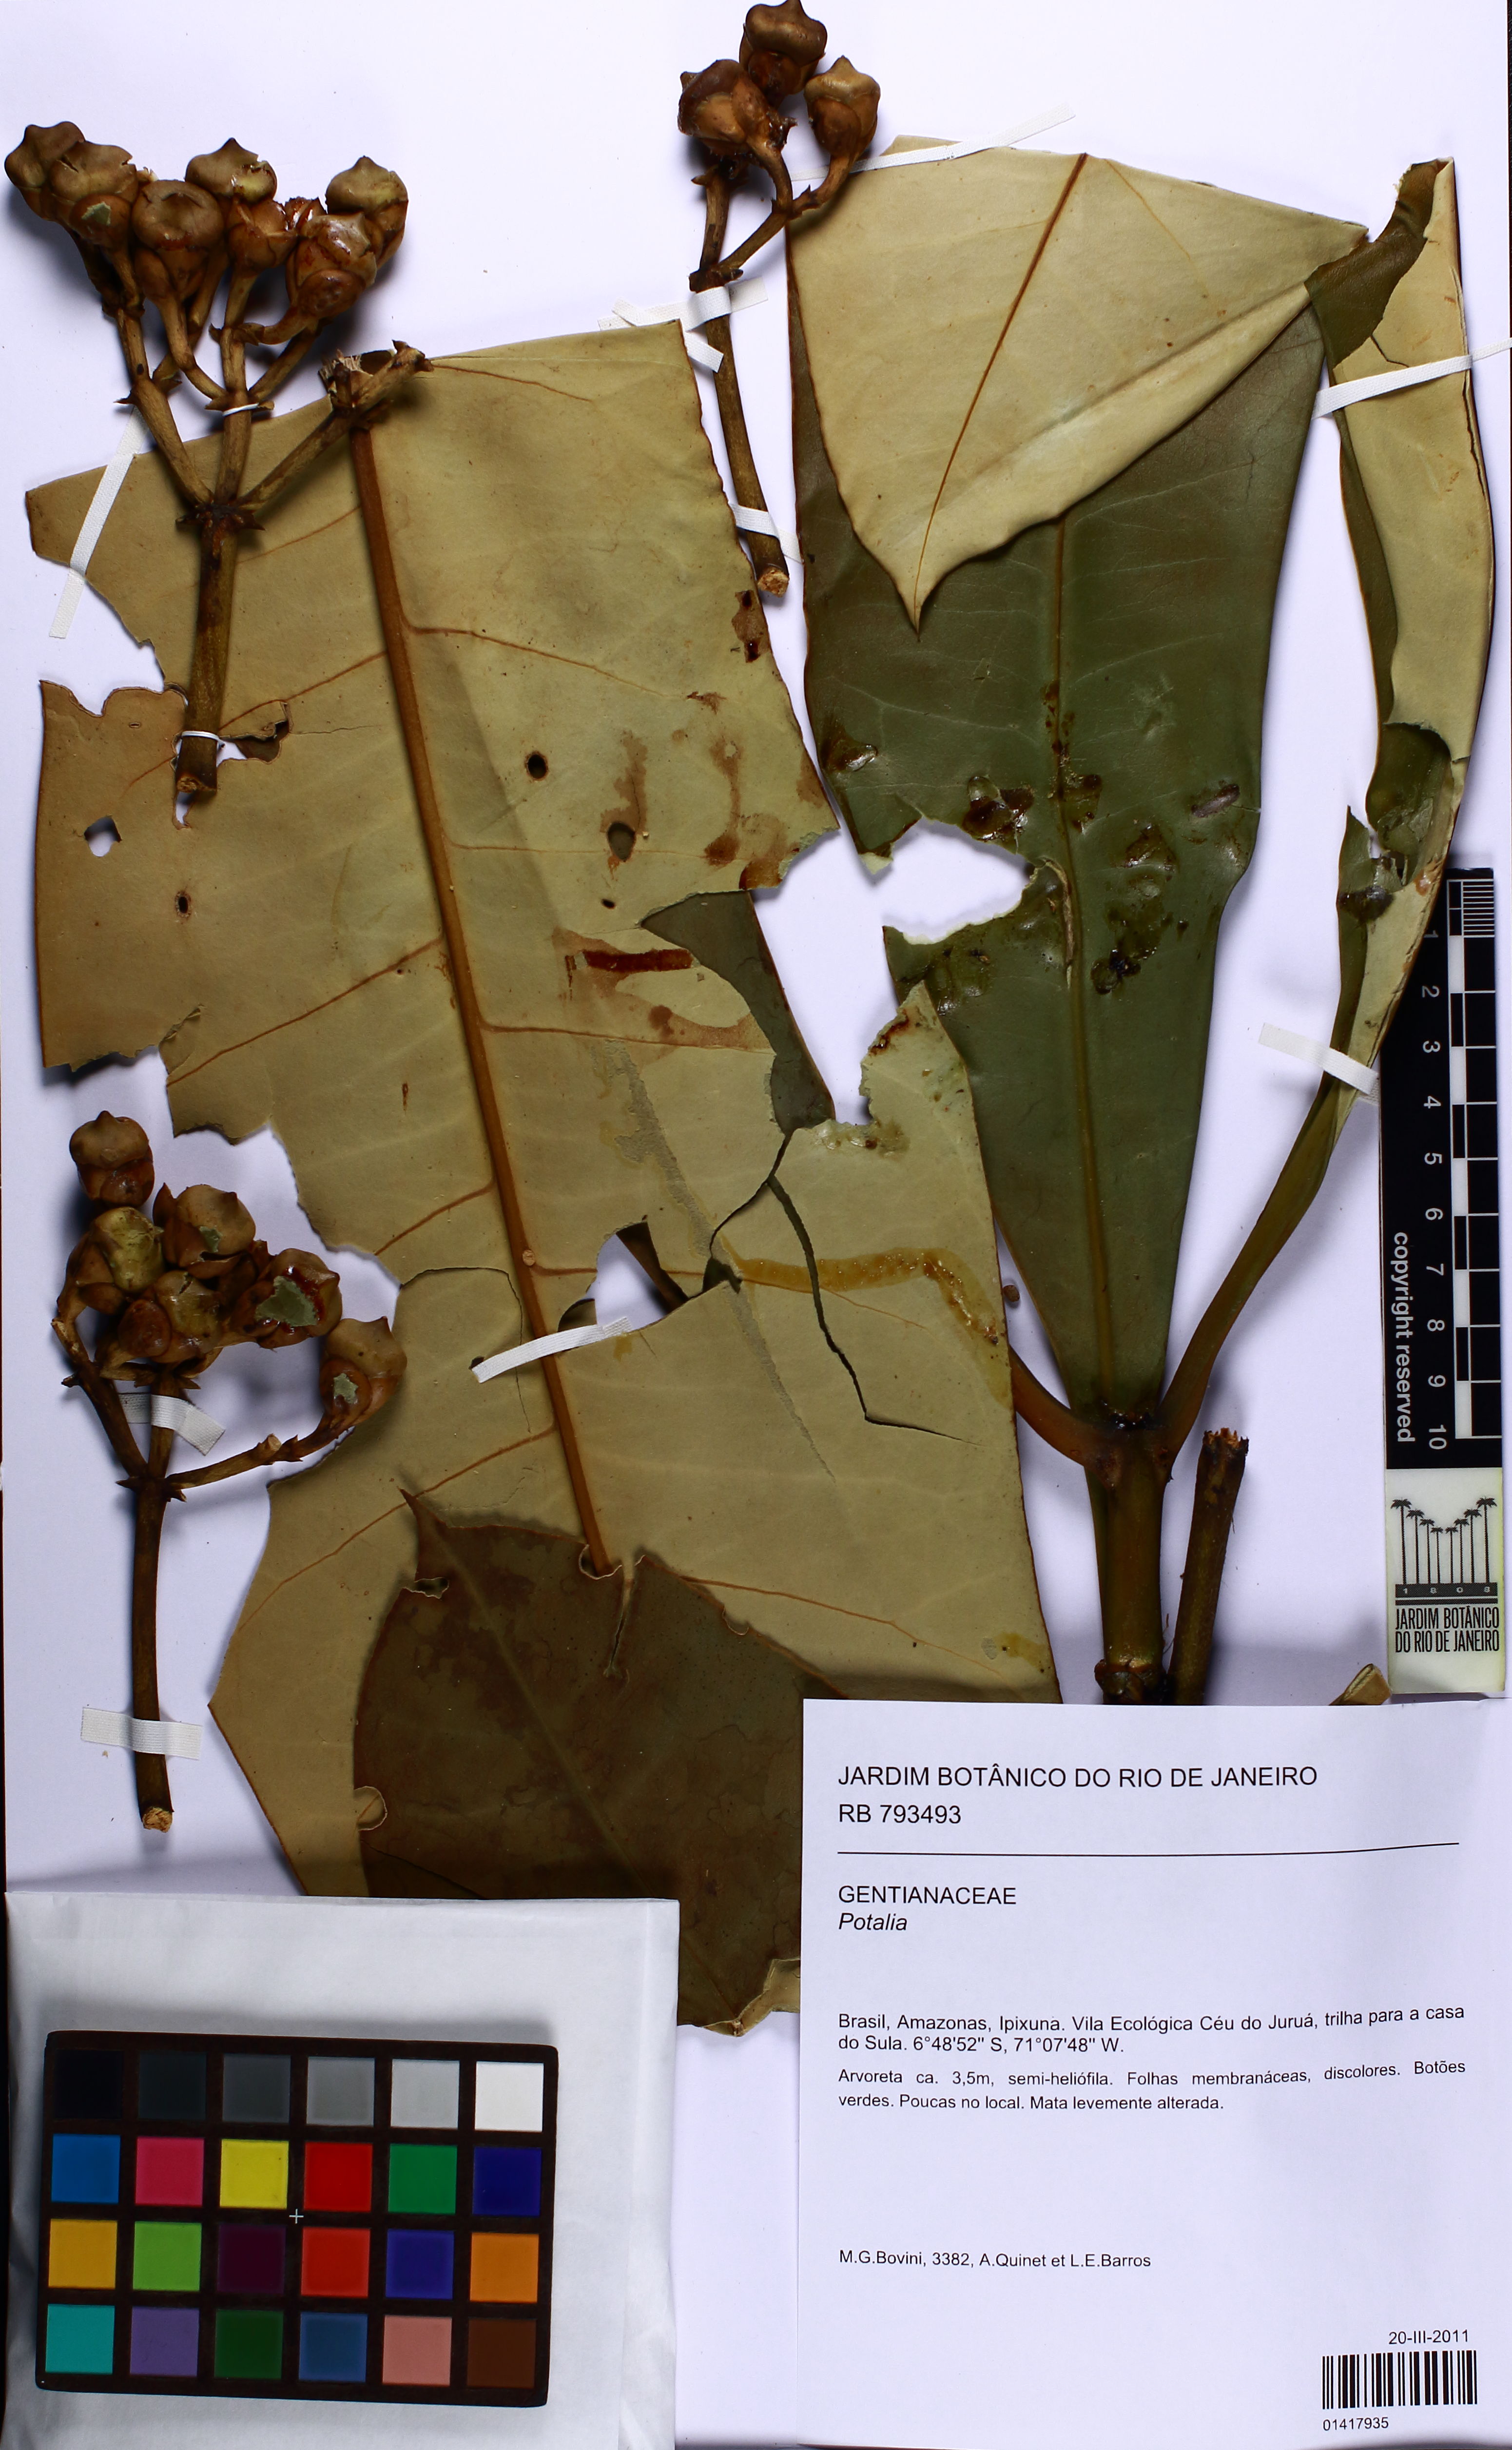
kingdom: Plantae
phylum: Tracheophyta
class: Magnoliopsida
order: Gentianales
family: Gentianaceae
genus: Potalia
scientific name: Potalia
